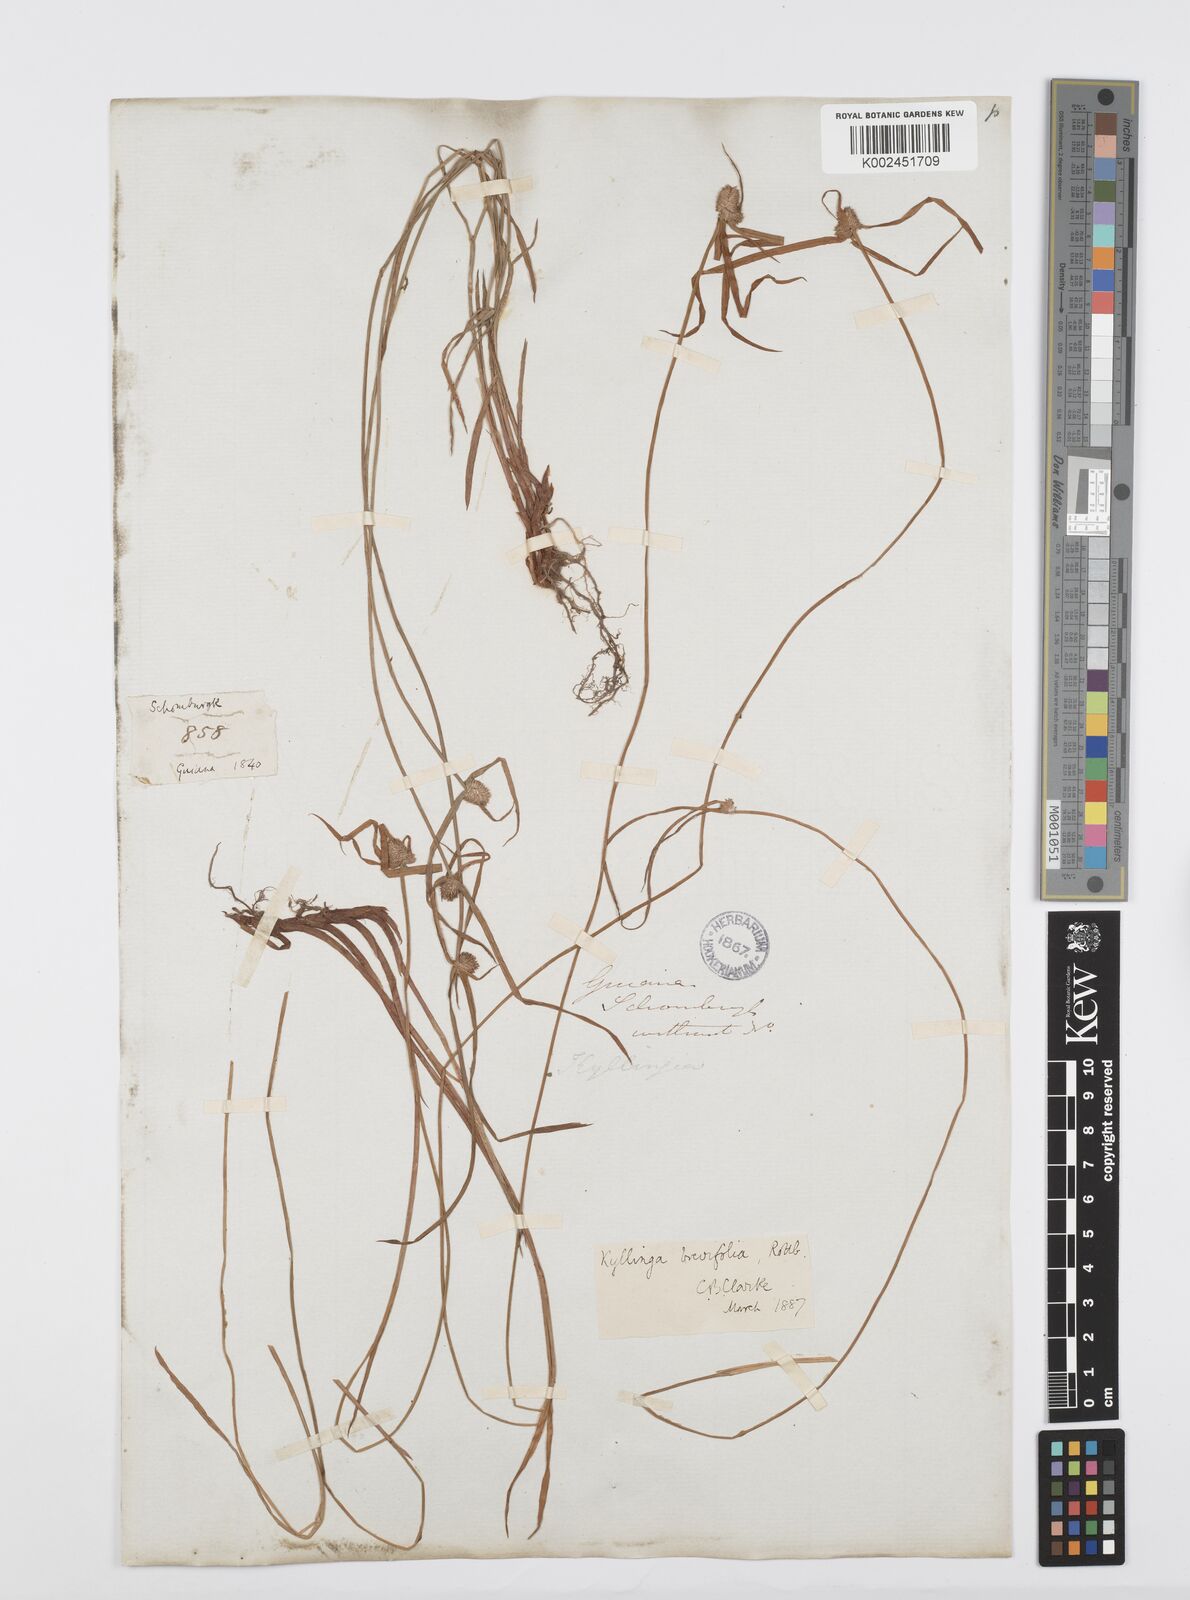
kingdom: Plantae
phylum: Tracheophyta
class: Liliopsida
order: Poales
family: Cyperaceae
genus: Cyperus
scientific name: Cyperus brevifolius
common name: Globe kyllinga
